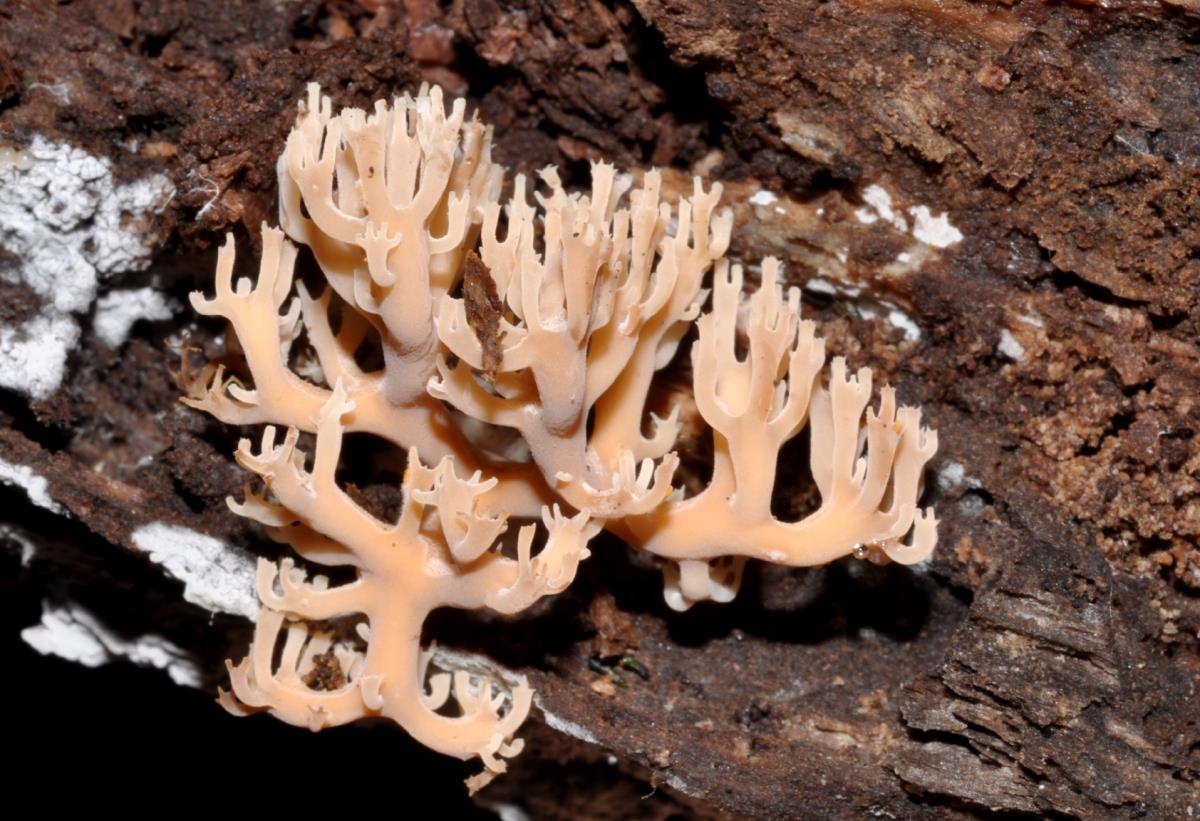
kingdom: Fungi
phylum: Basidiomycota
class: Agaricomycetes
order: Russulales
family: Auriscalpiaceae
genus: Artomyces
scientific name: Artomyces candelabrus
